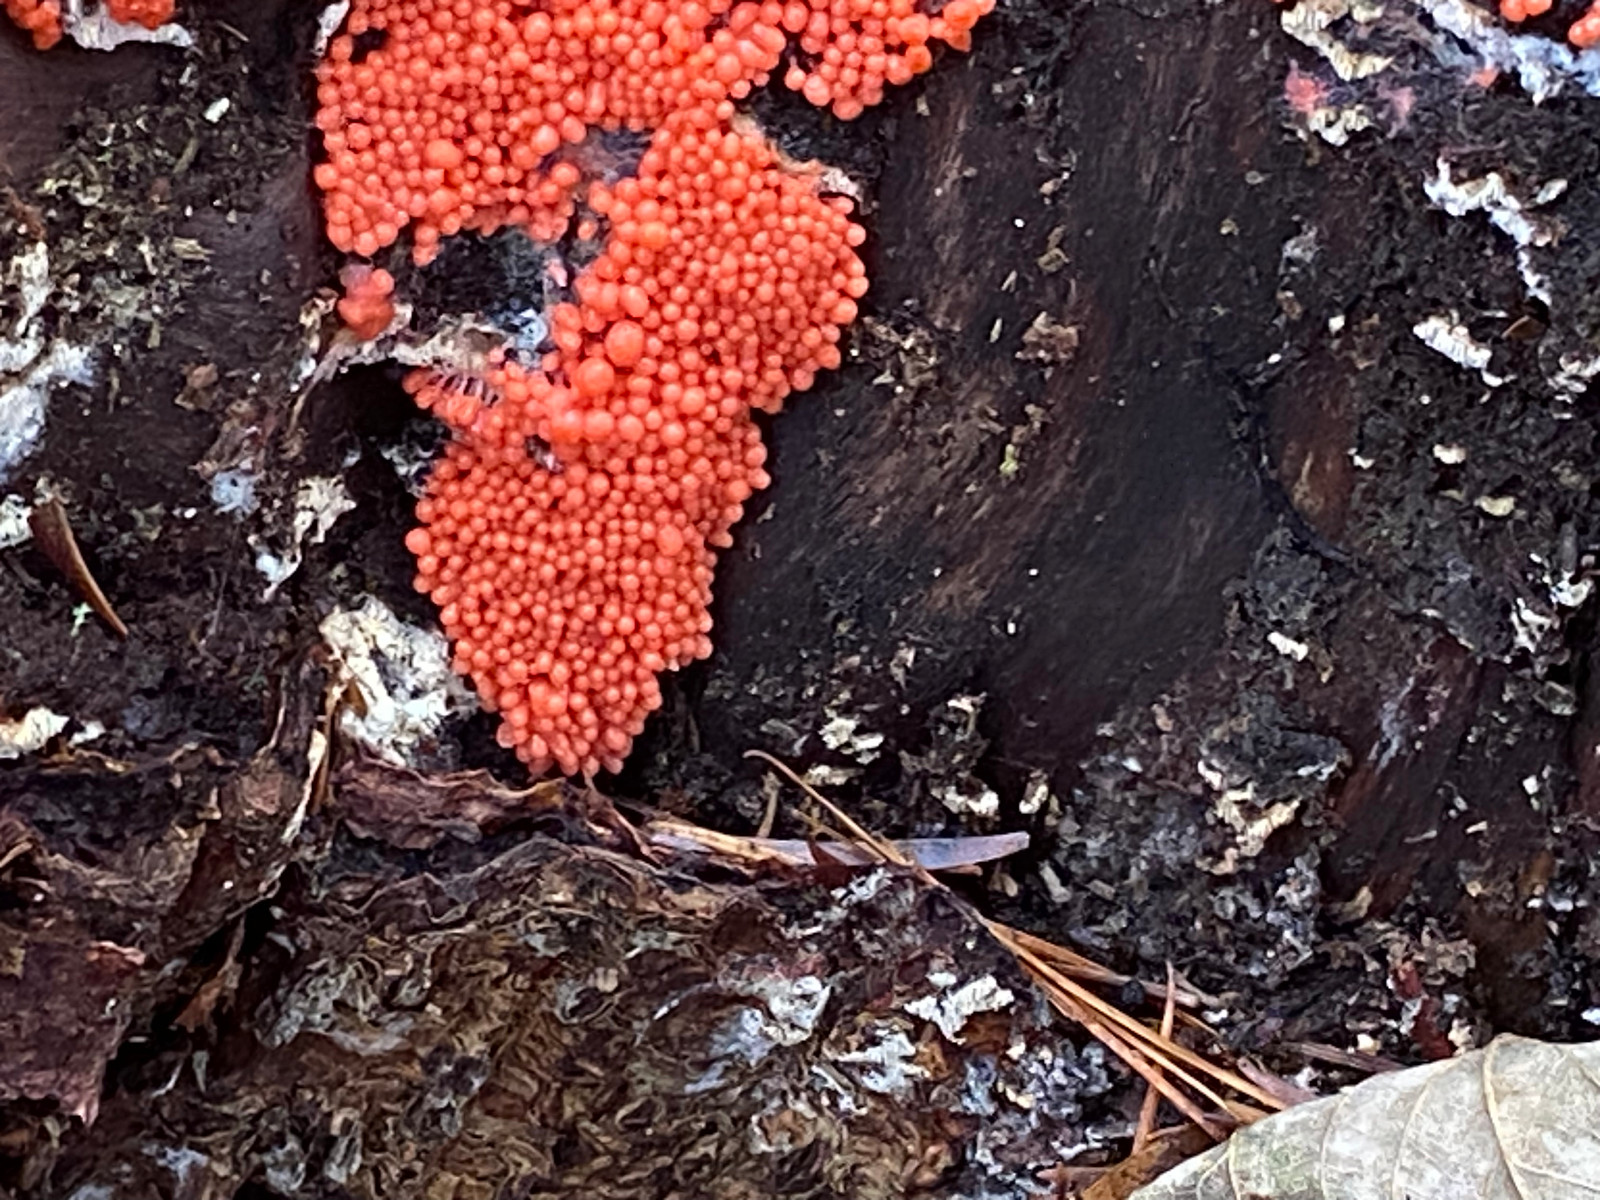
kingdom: Protozoa
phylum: Mycetozoa
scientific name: Mycetozoa
